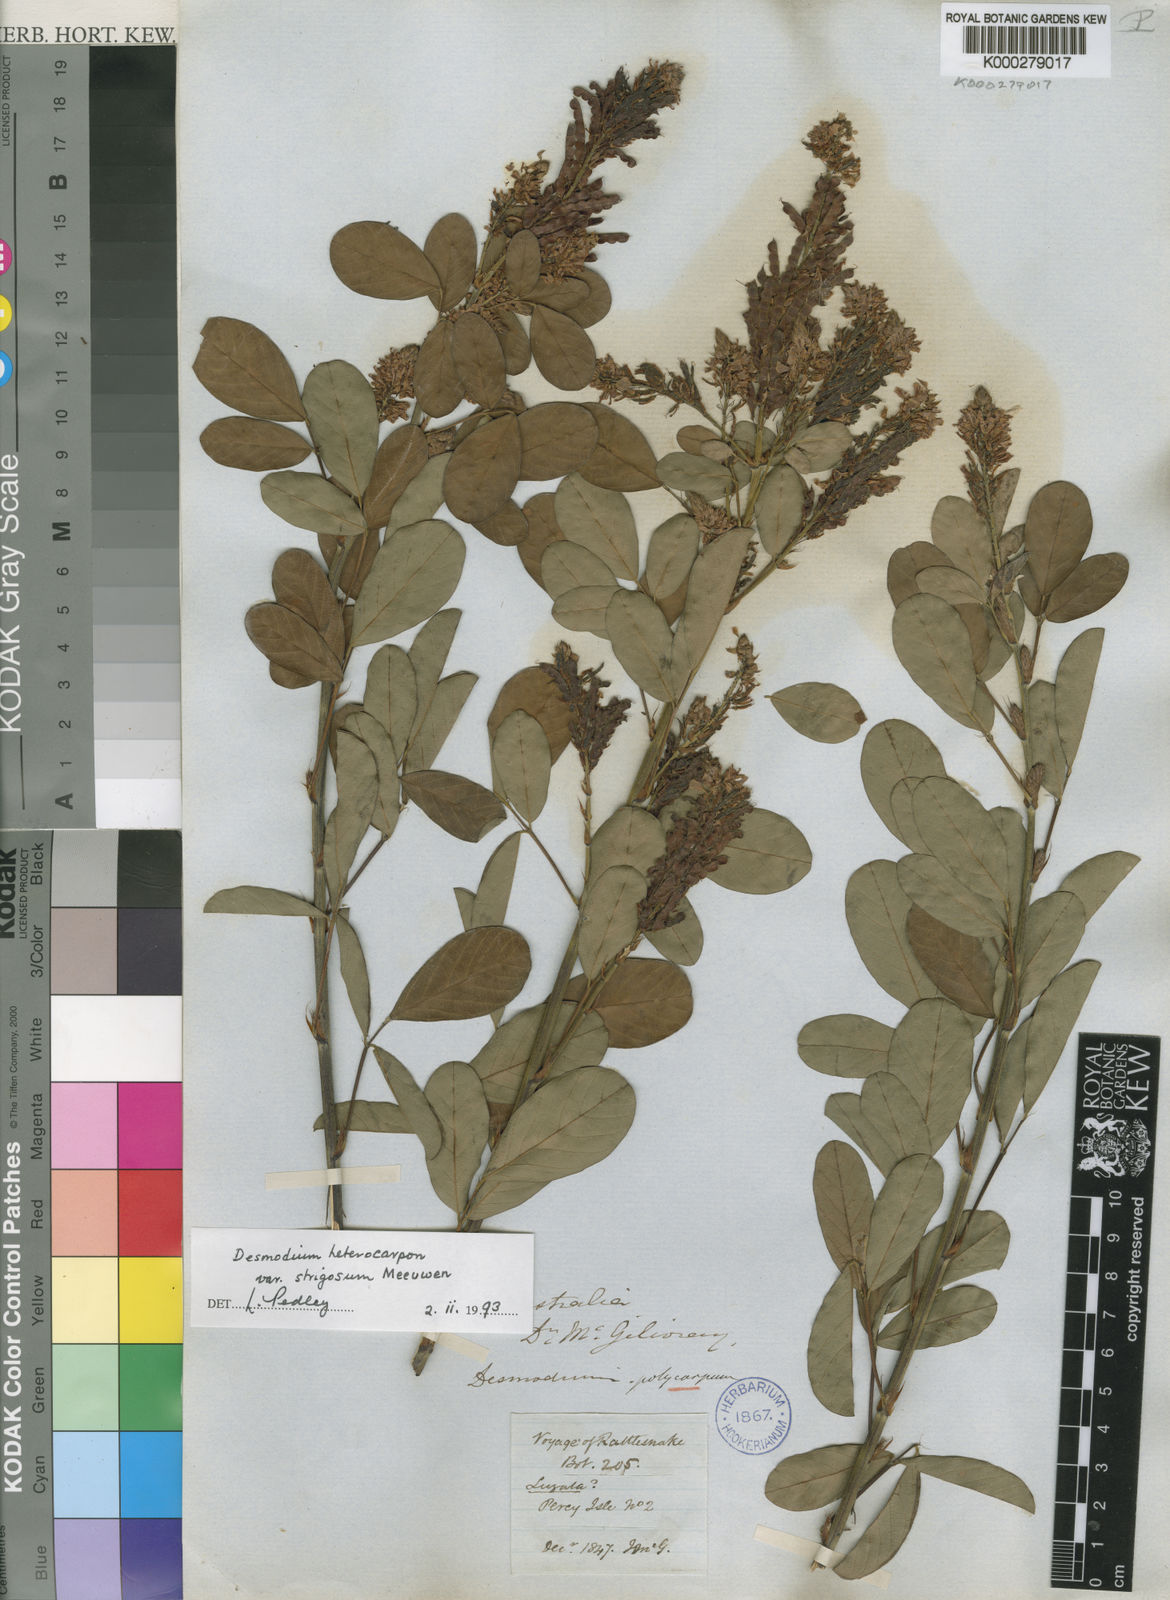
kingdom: Plantae
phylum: Tracheophyta
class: Magnoliopsida
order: Fabales
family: Fabaceae
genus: Grona
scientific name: Grona heterocarpos
